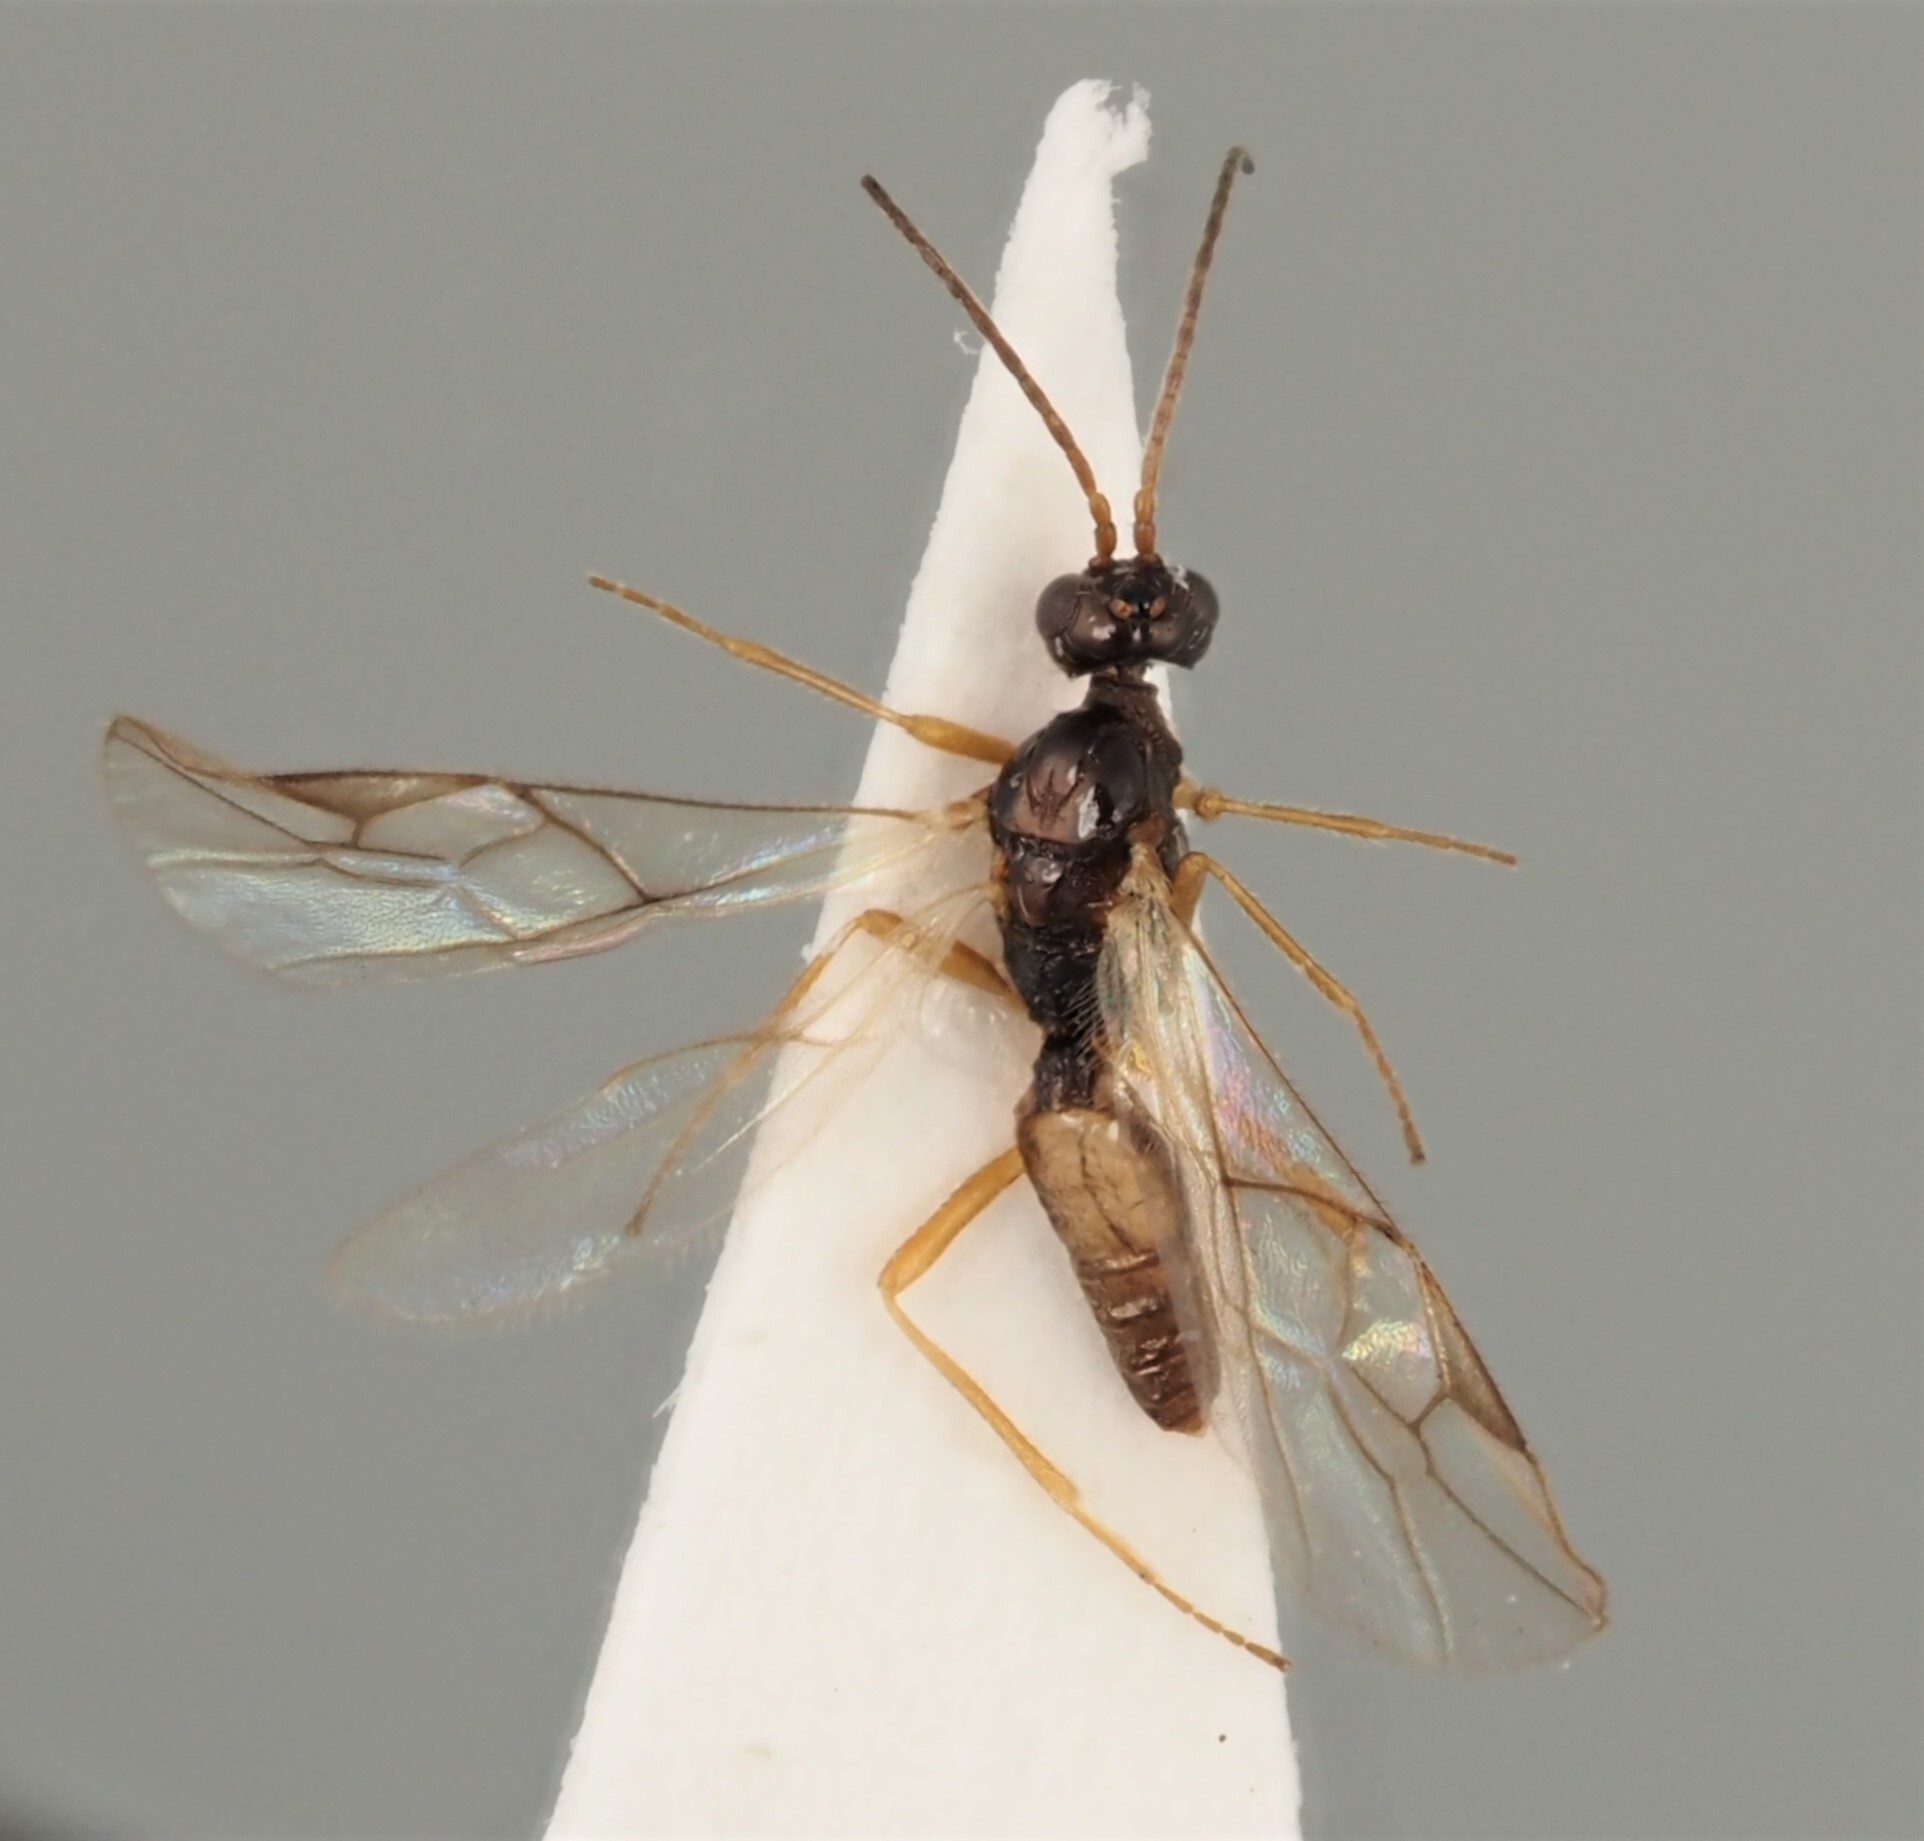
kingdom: Animalia
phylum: Arthropoda
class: Insecta
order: Hymenoptera
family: Braconidae
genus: Hormius
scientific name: Hormius moniliatus
